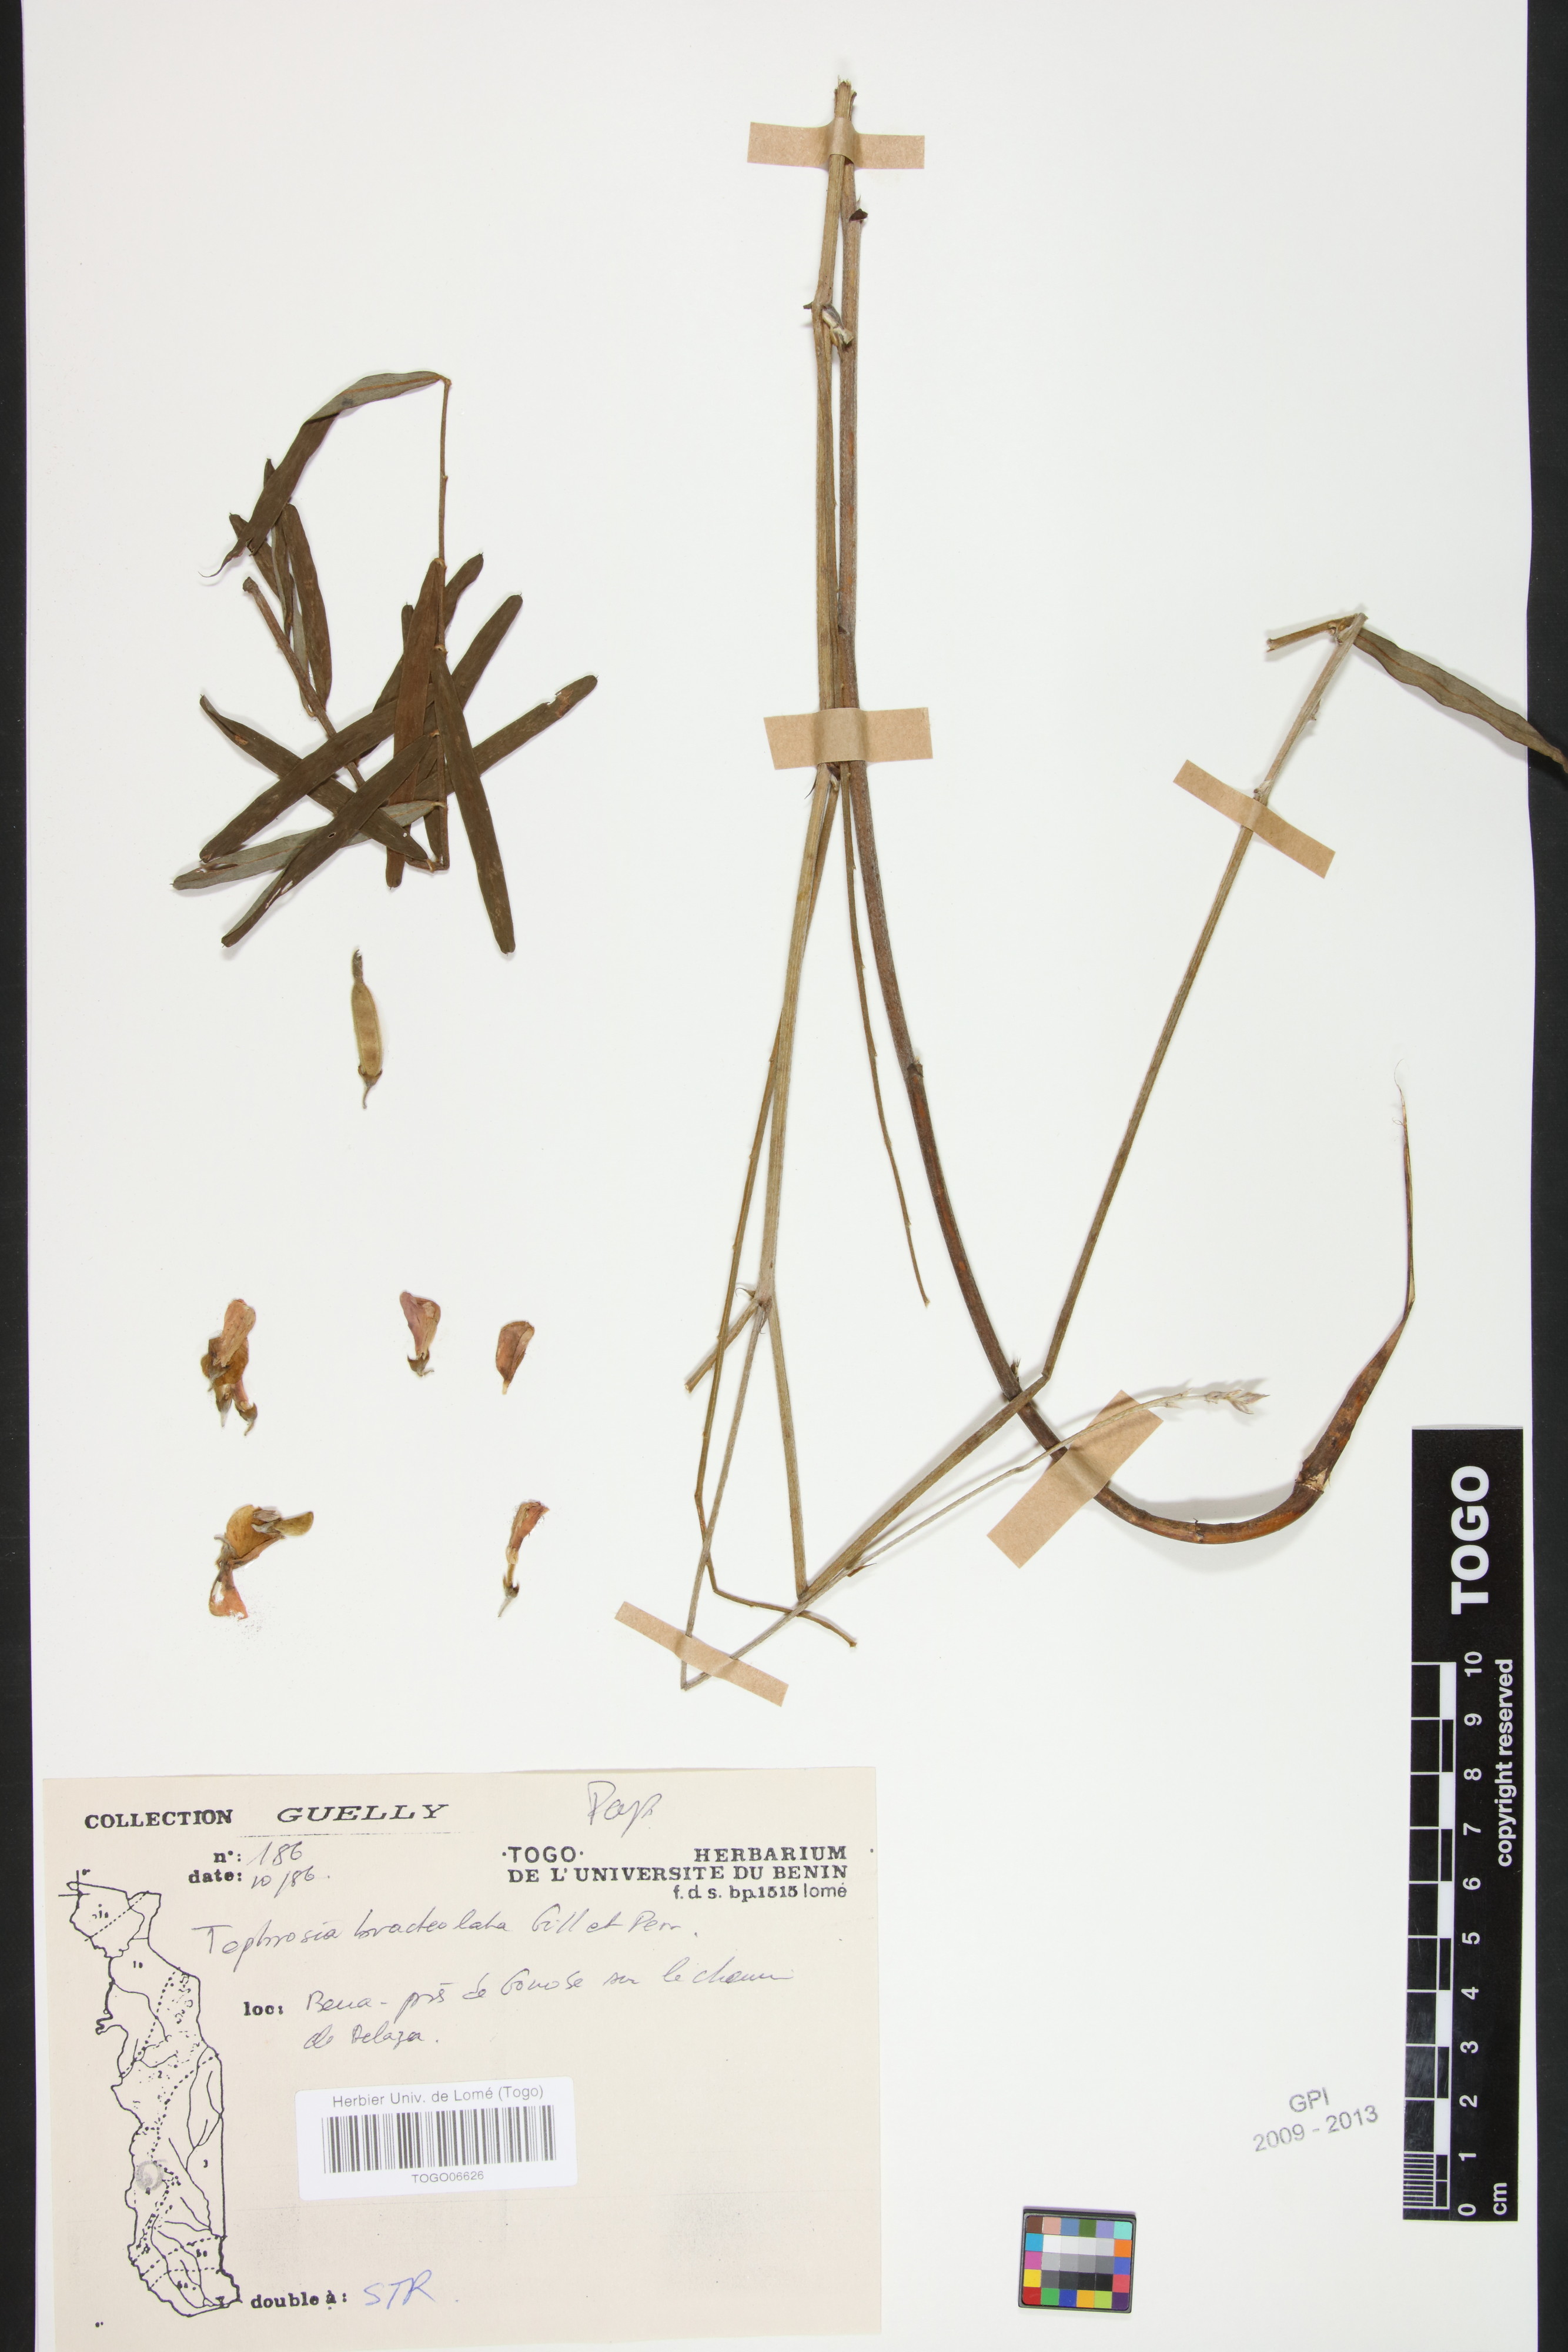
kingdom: Plantae
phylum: Tracheophyta
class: Magnoliopsida
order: Fabales
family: Fabaceae
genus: Tephrosia
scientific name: Tephrosia bracteolata
